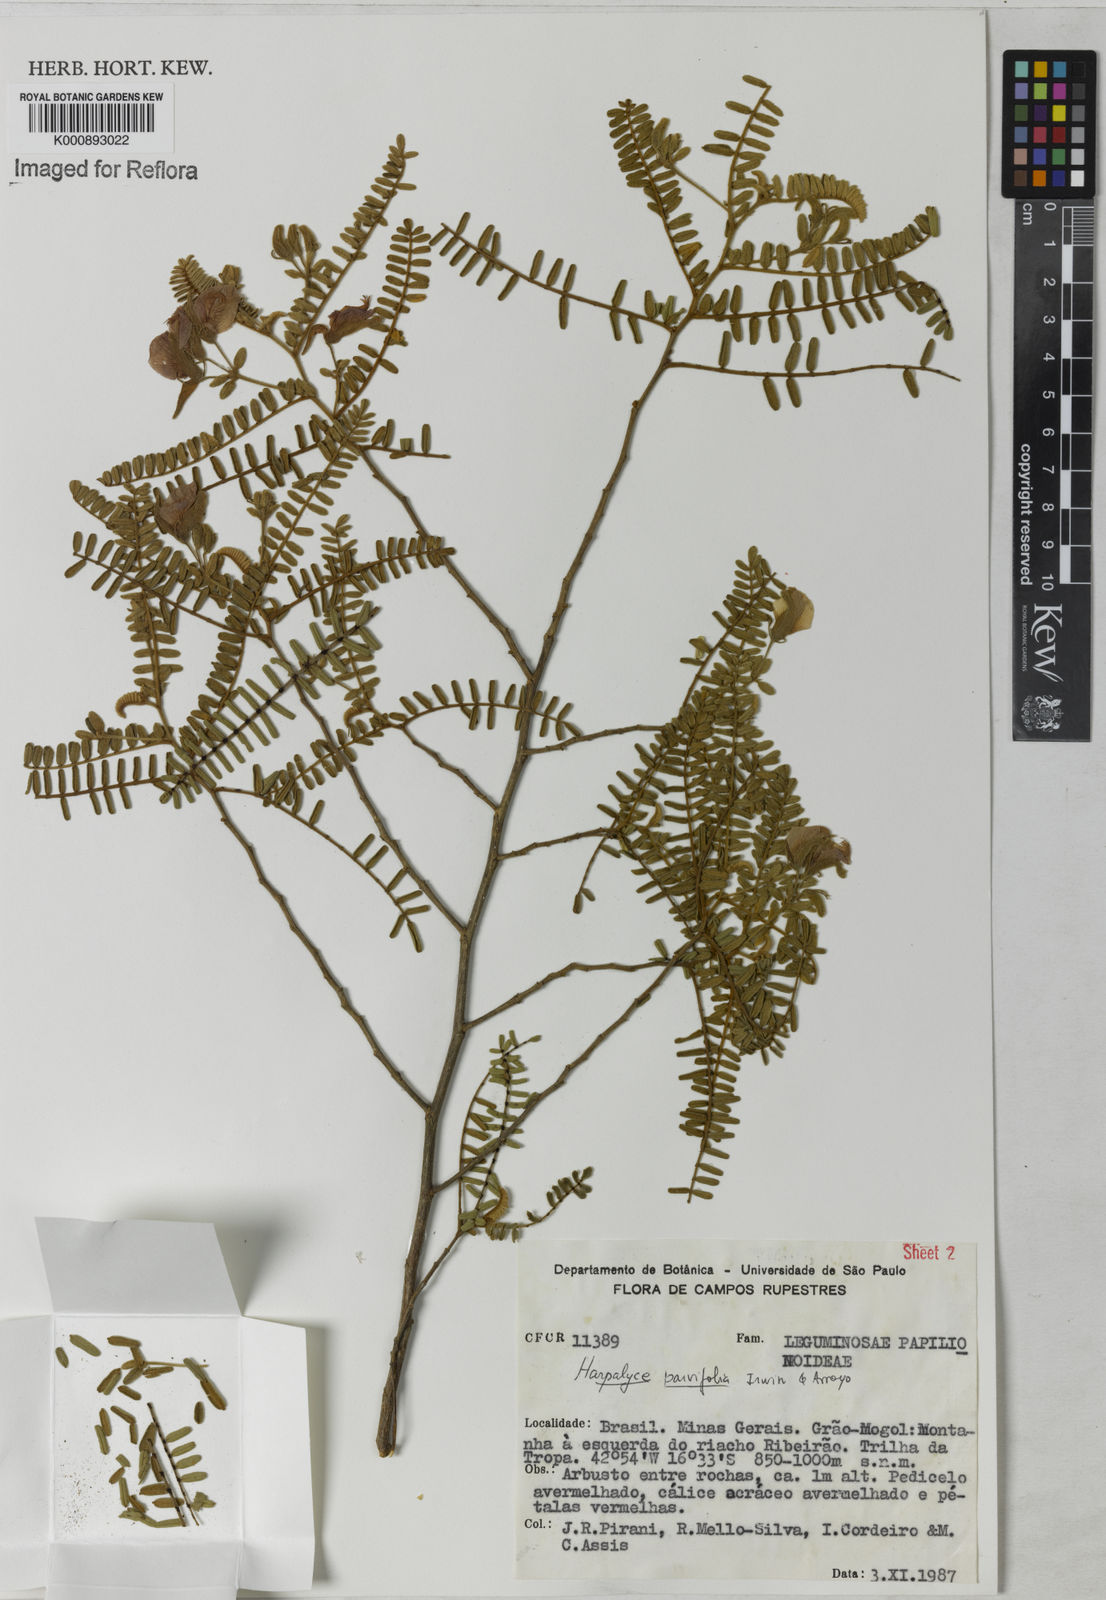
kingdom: Plantae
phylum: Tracheophyta
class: Magnoliopsida
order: Fabales
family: Fabaceae
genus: Harpalyce
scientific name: Harpalyce parvifolia
